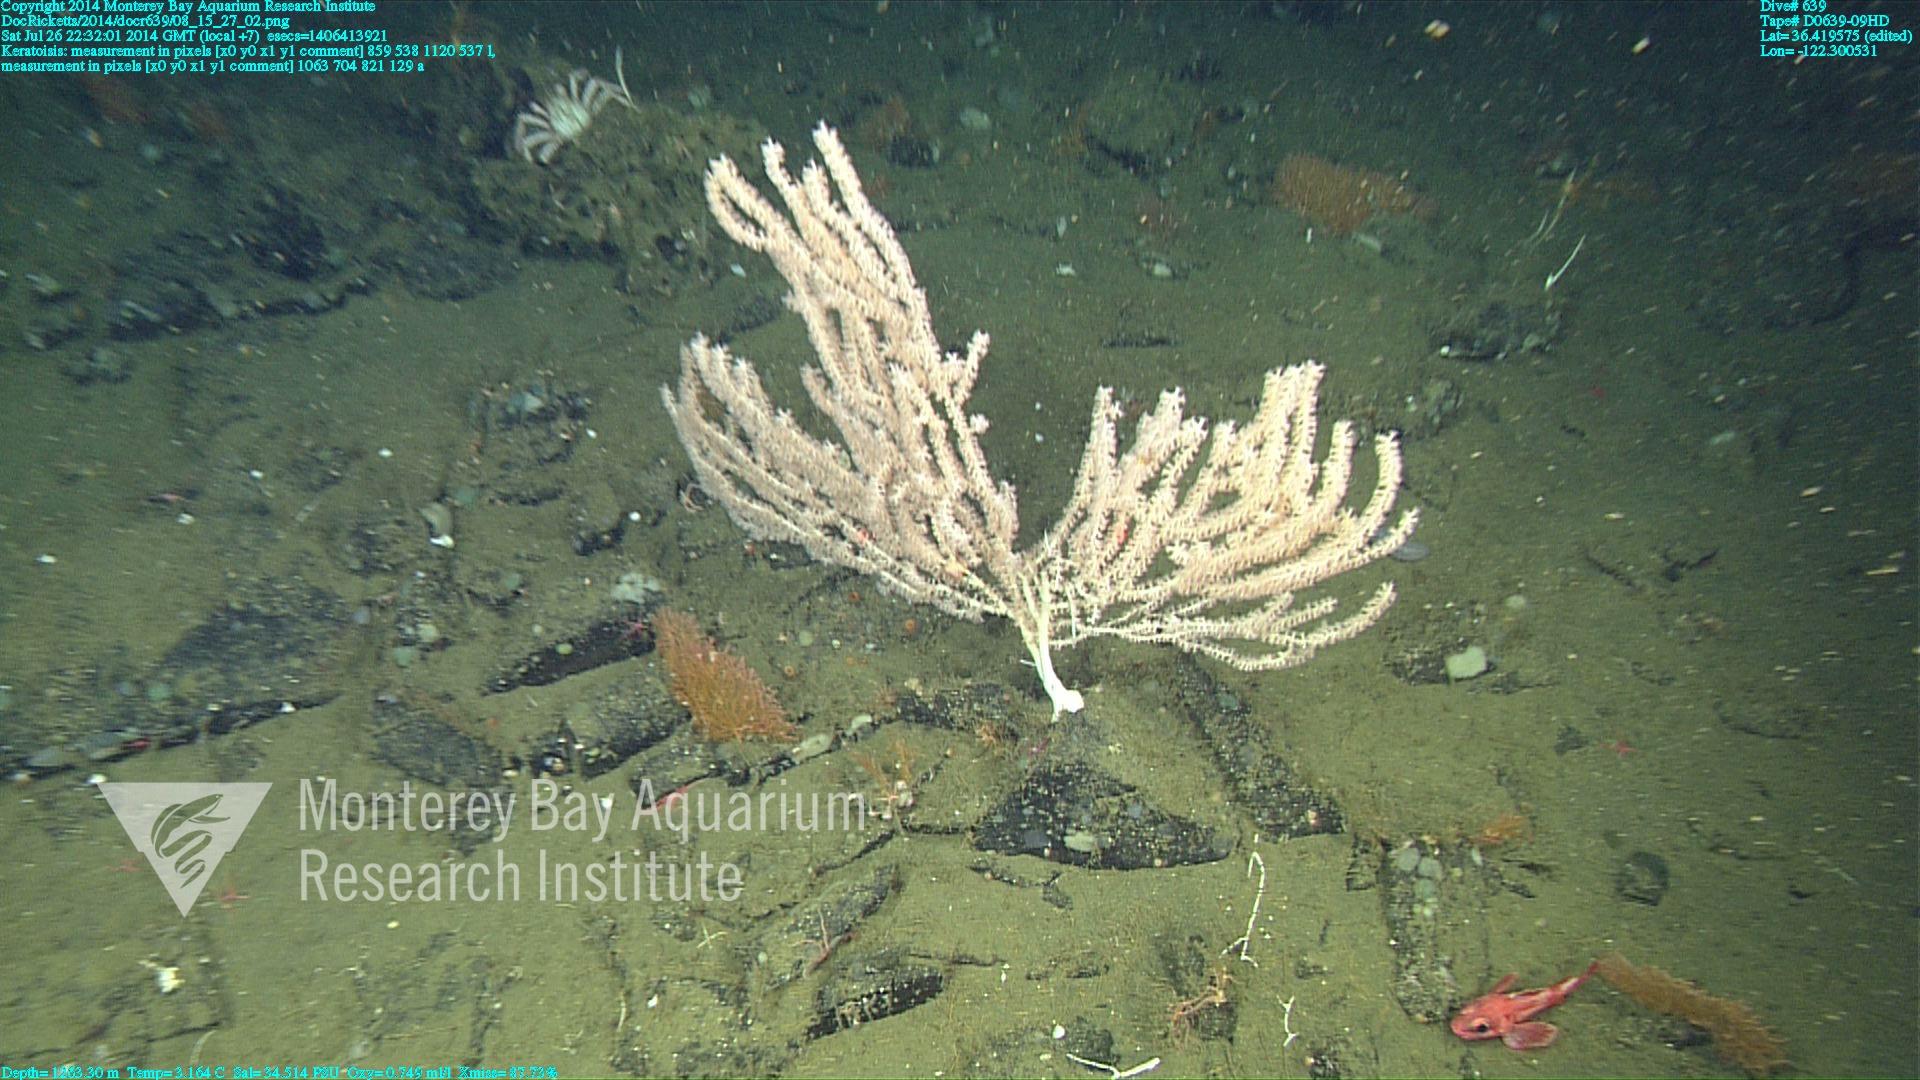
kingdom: Animalia
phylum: Cnidaria
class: Anthozoa
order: Scleralcyonacea
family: Keratoisididae
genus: Keratoisis
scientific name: Keratoisis
